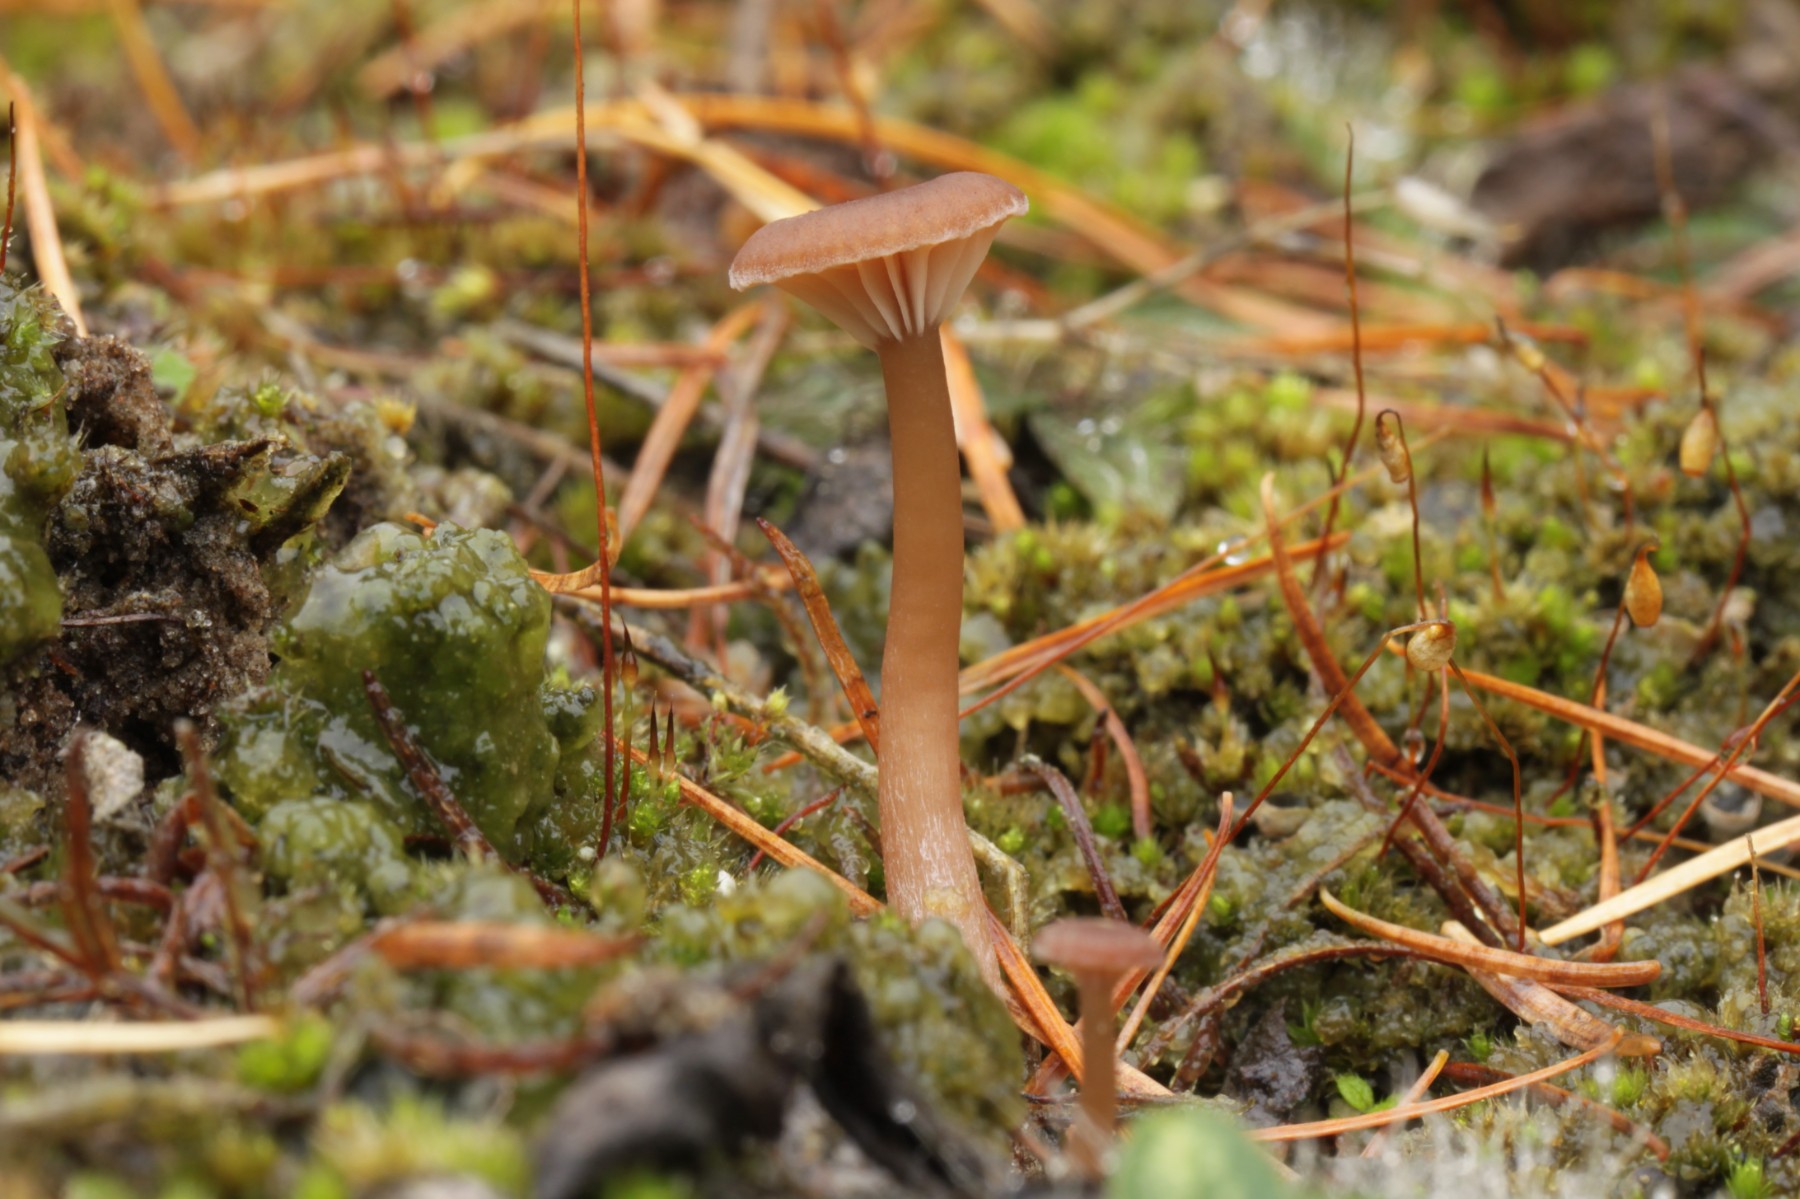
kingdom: Fungi
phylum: Basidiomycota
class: Agaricomycetes
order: Agaricales
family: Tricholomataceae
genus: Omphalina
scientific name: Omphalina pyxidata
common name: rødbrun navlehat
